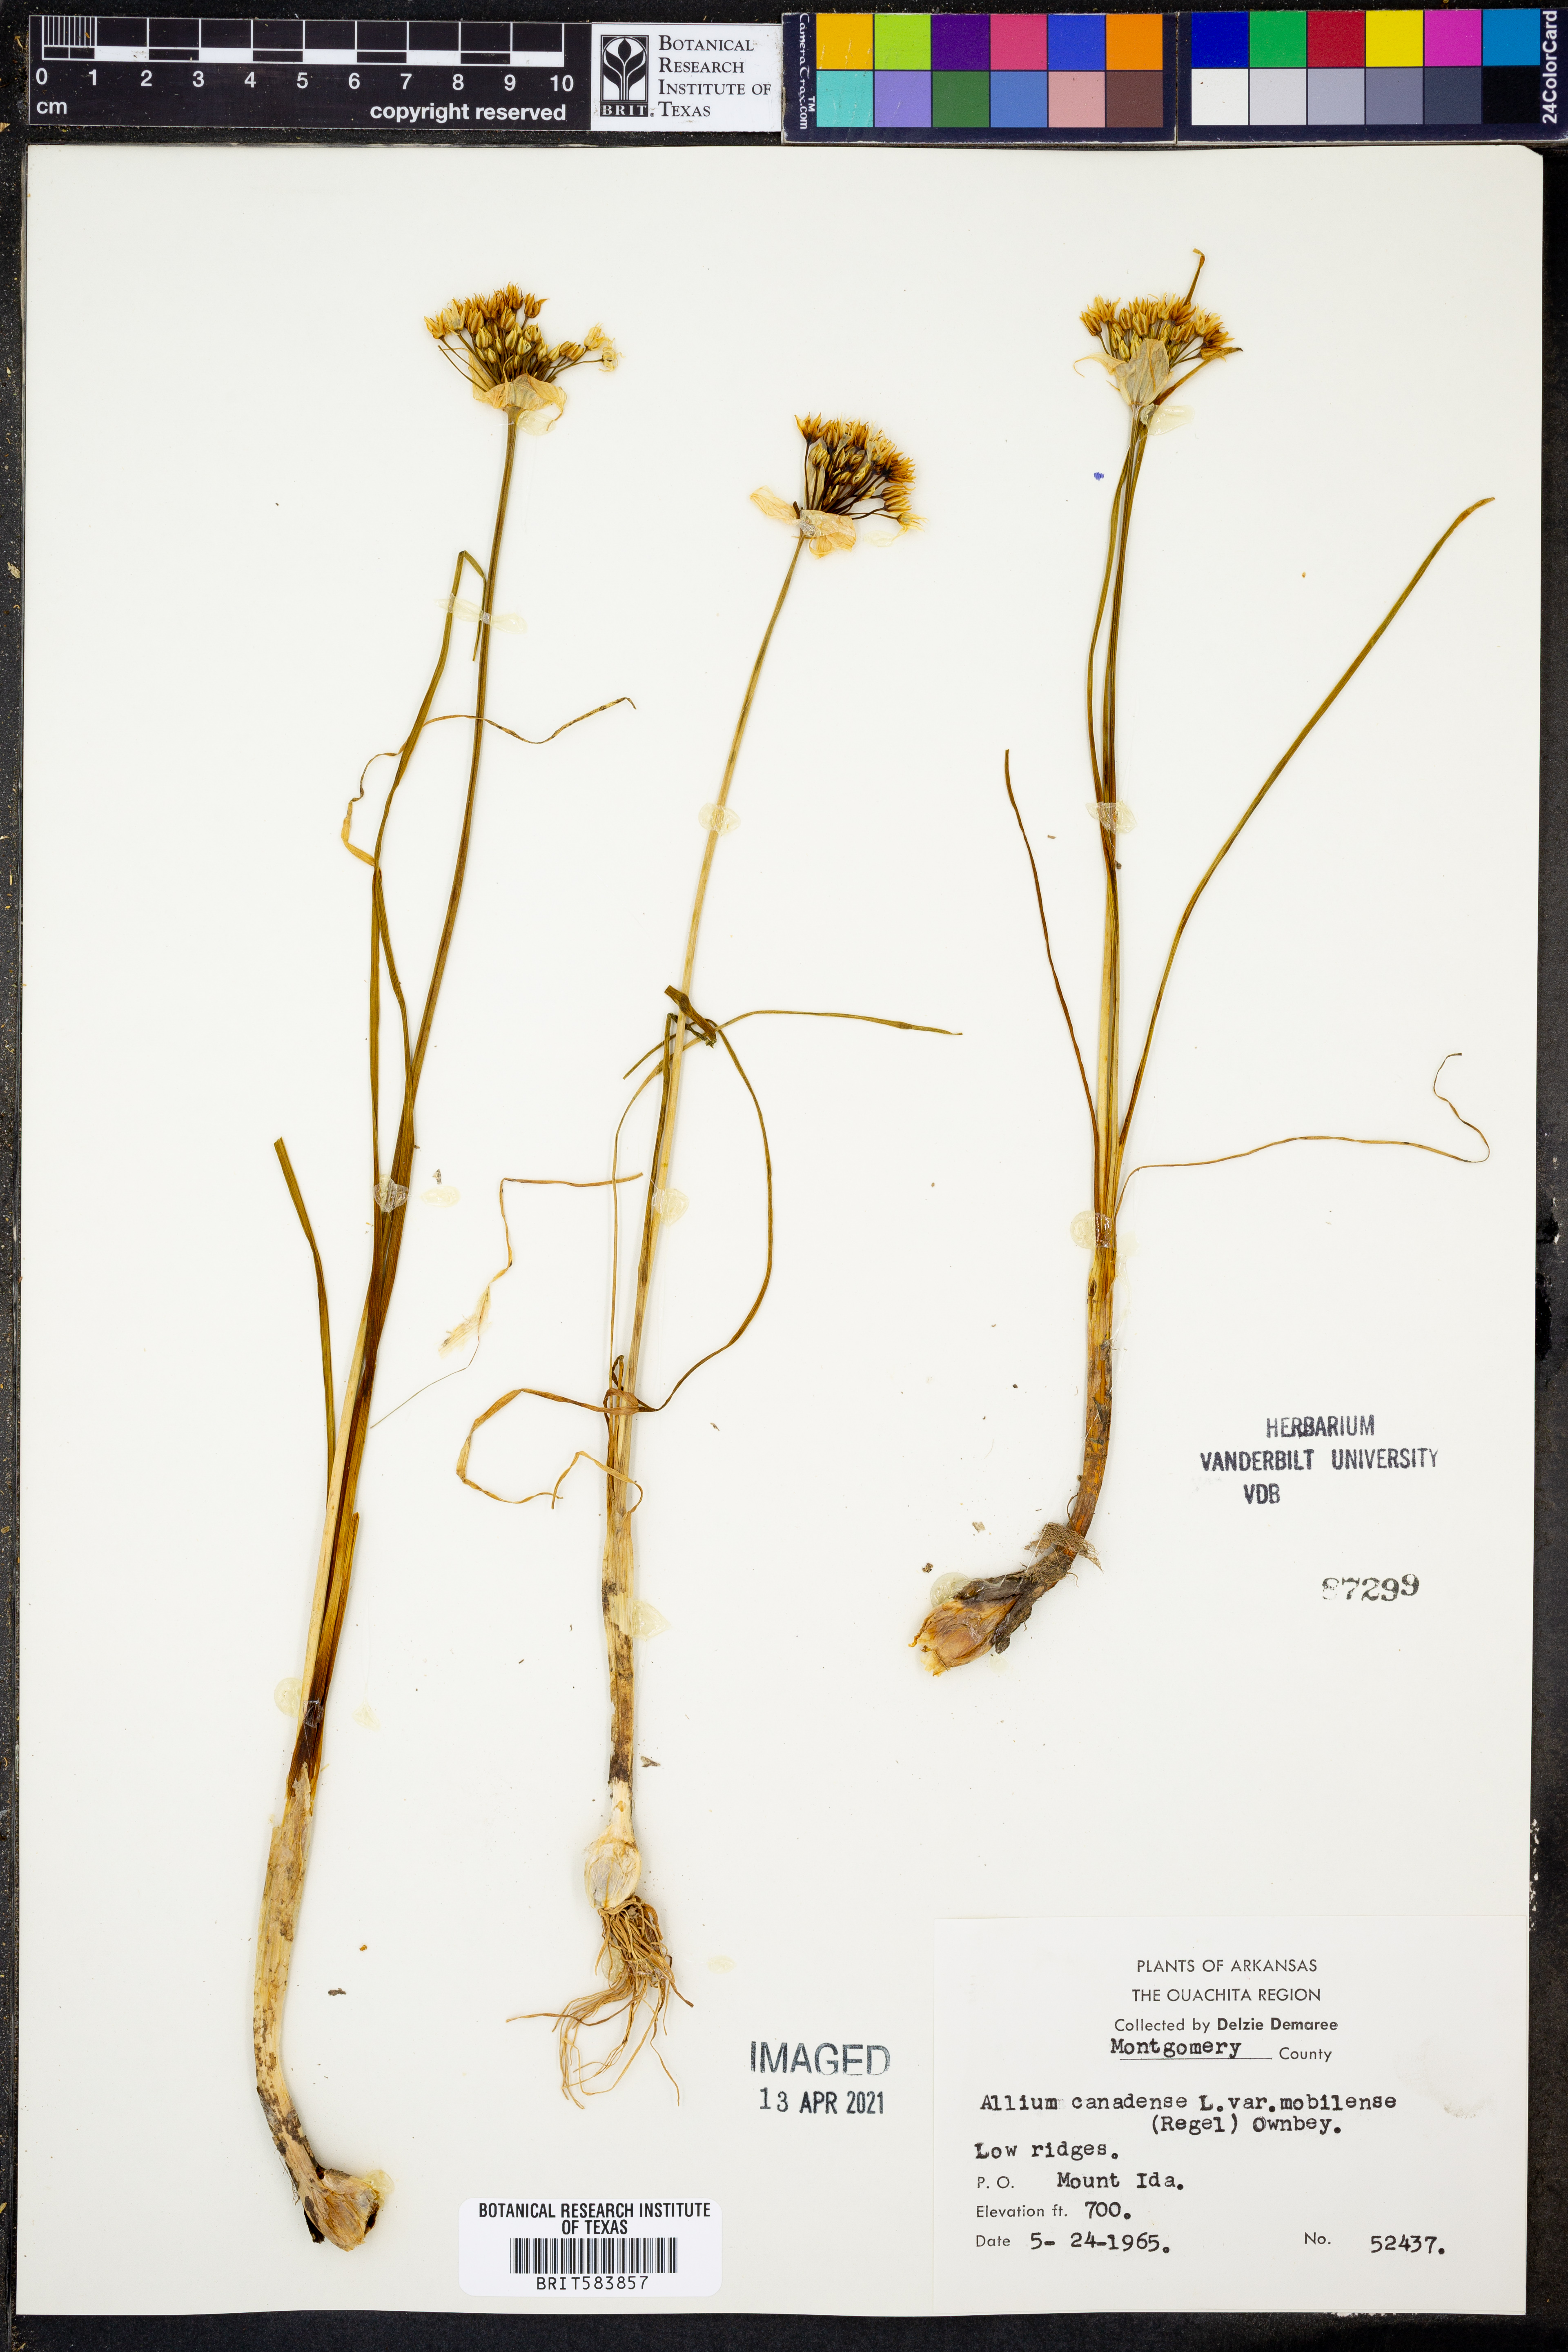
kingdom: Plantae
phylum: Tracheophyta
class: Liliopsida
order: Asparagales
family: Amaryllidaceae
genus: Allium
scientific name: Allium canadense
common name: Meadow garlic
